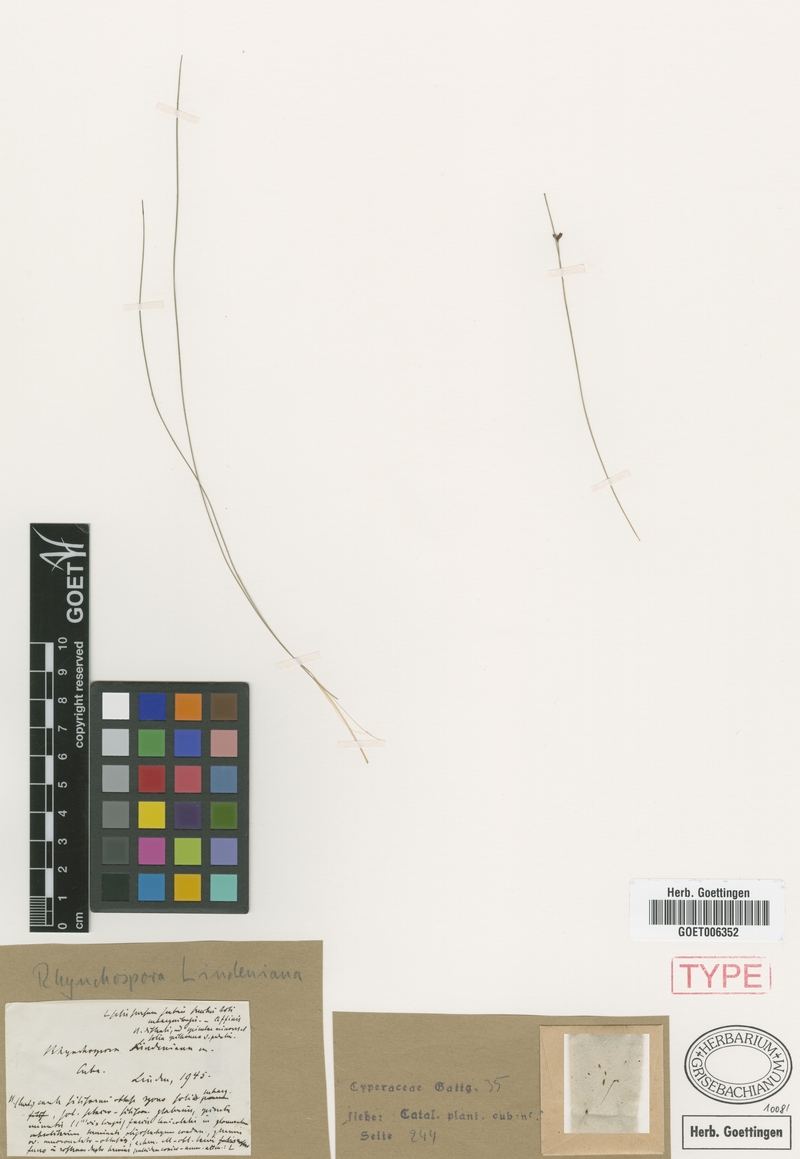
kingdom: Plantae
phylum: Tracheophyta
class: Liliopsida
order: Poales
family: Cyperaceae
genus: Rhynchospora
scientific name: Rhynchospora lindeniana
